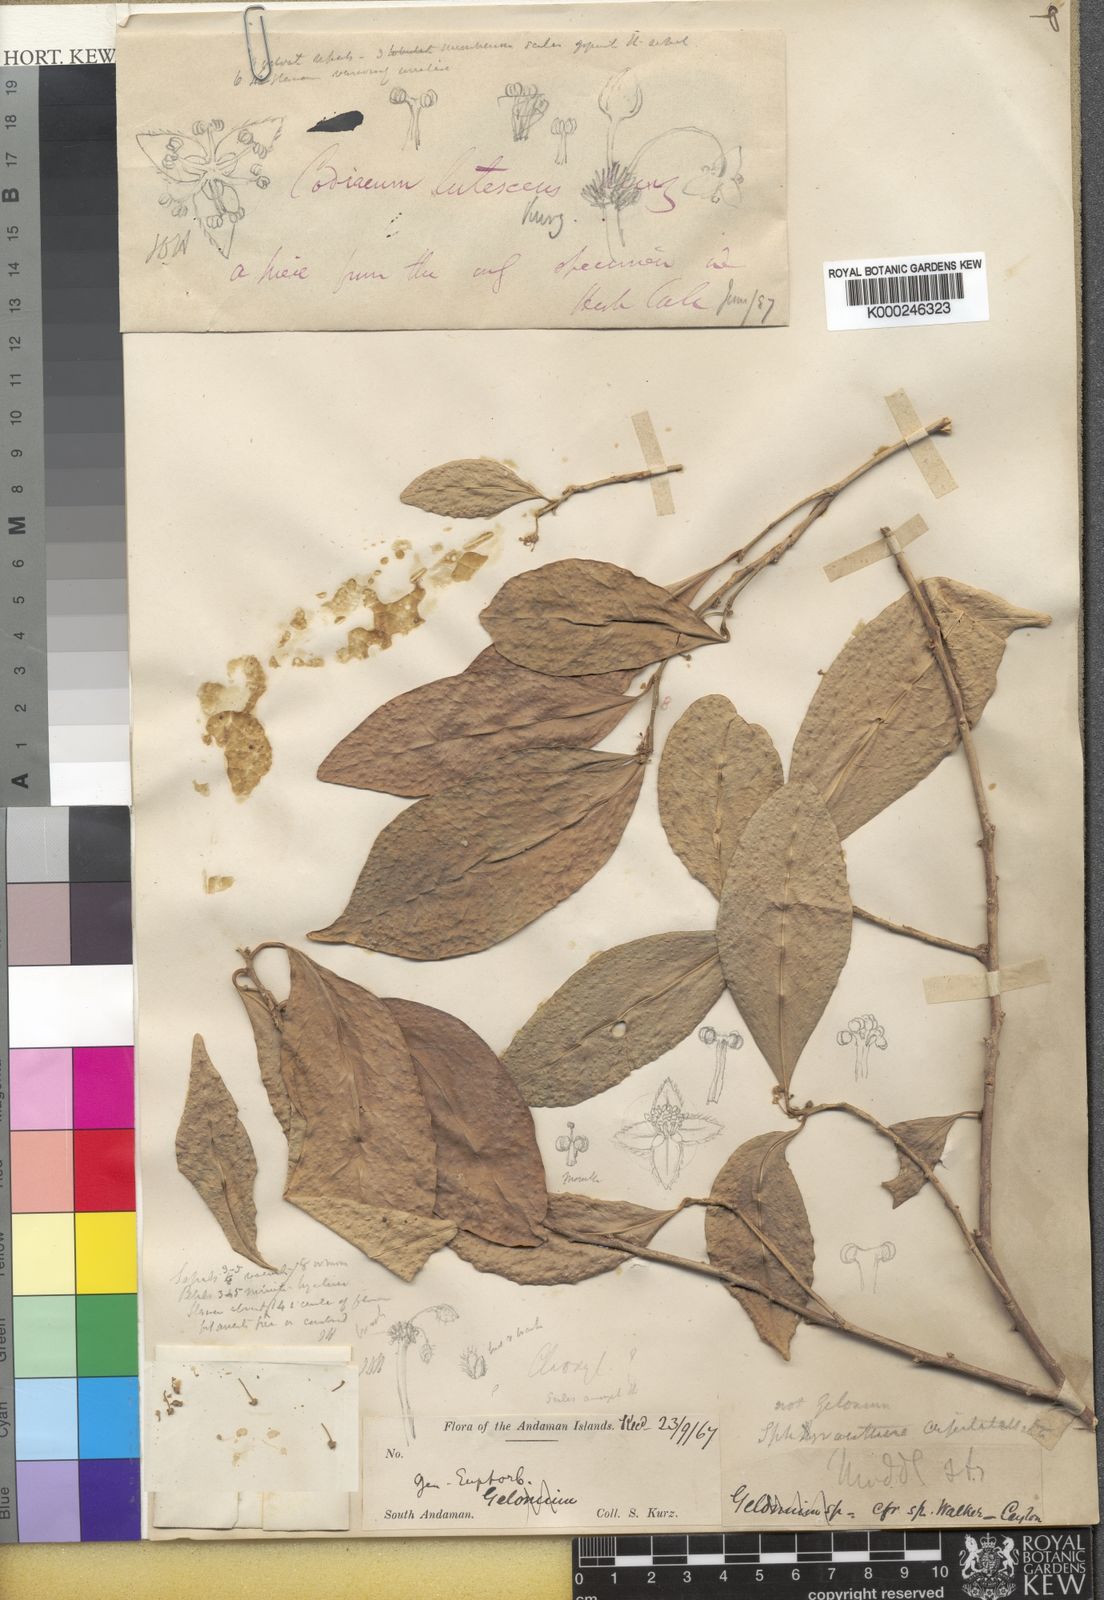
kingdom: Plantae
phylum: Tracheophyta
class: Magnoliopsida
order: Malpighiales
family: Euphorbiaceae
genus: Sphyranthera
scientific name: Sphyranthera lutescens
